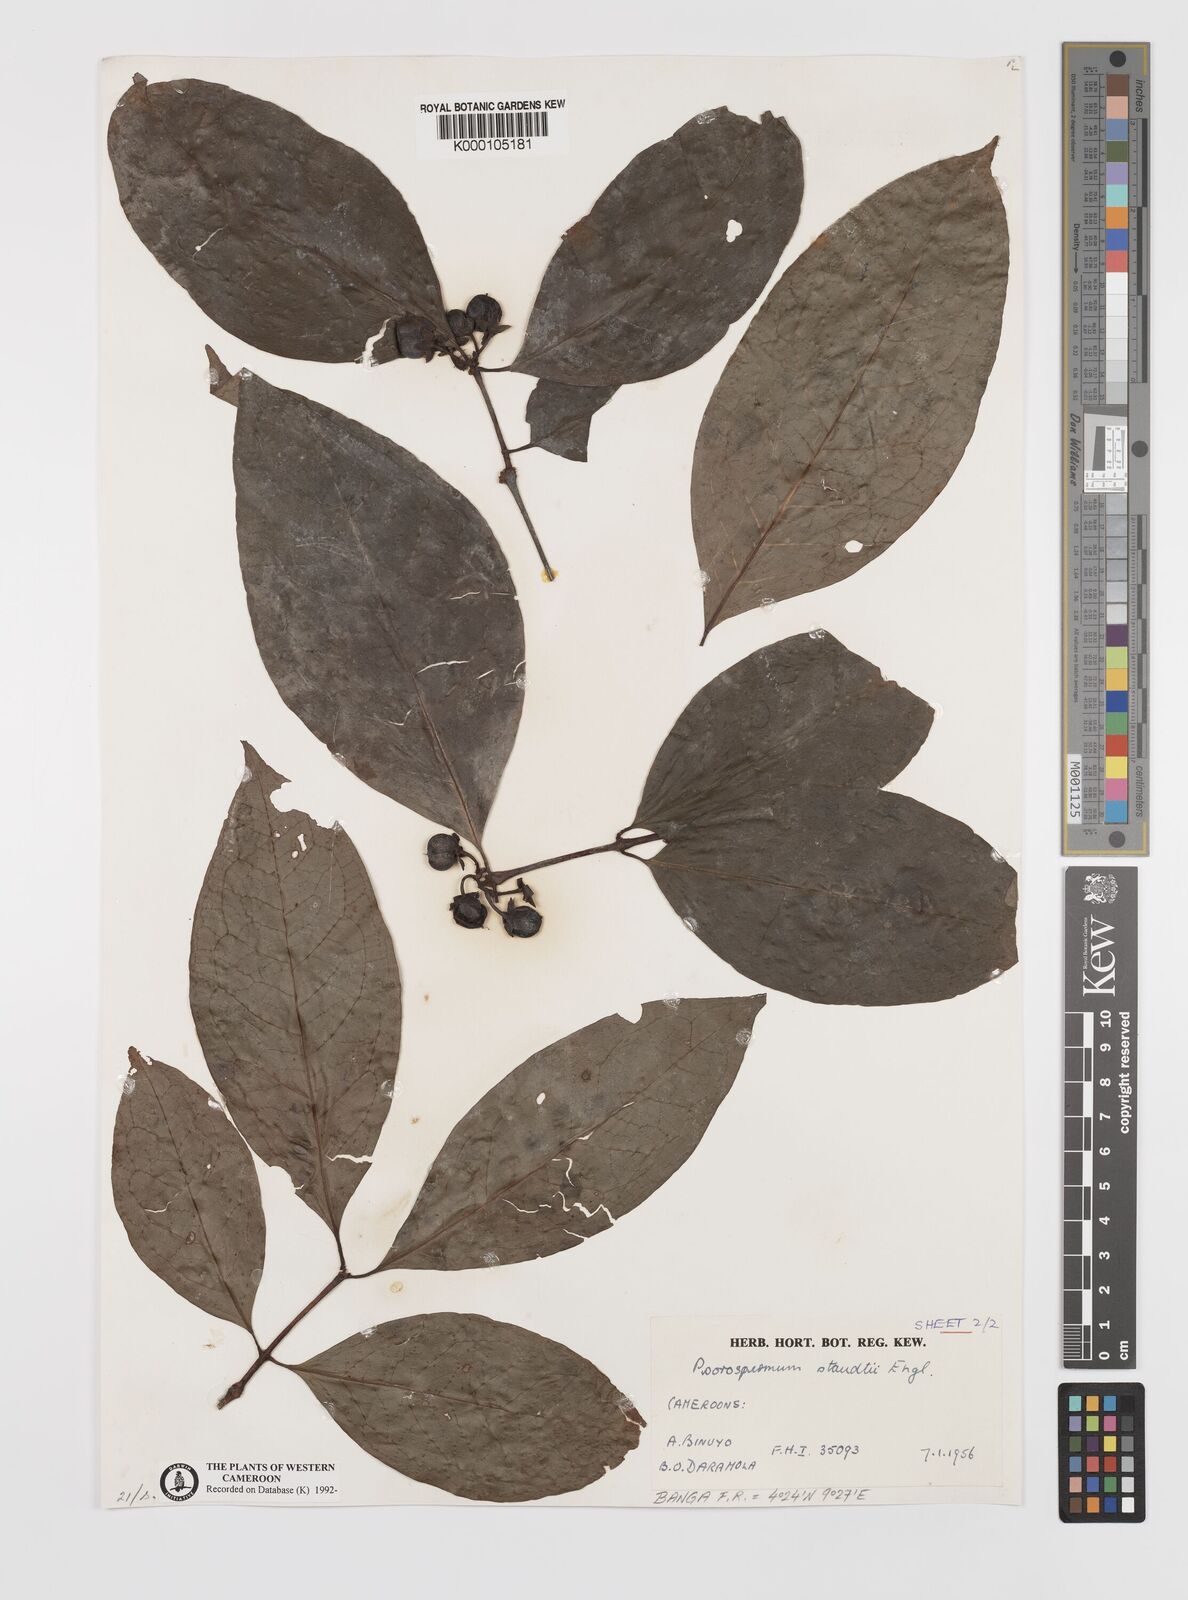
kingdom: Plantae
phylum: Tracheophyta
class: Magnoliopsida
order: Malpighiales
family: Hypericaceae
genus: Psorospermum
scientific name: Psorospermum staudtii
